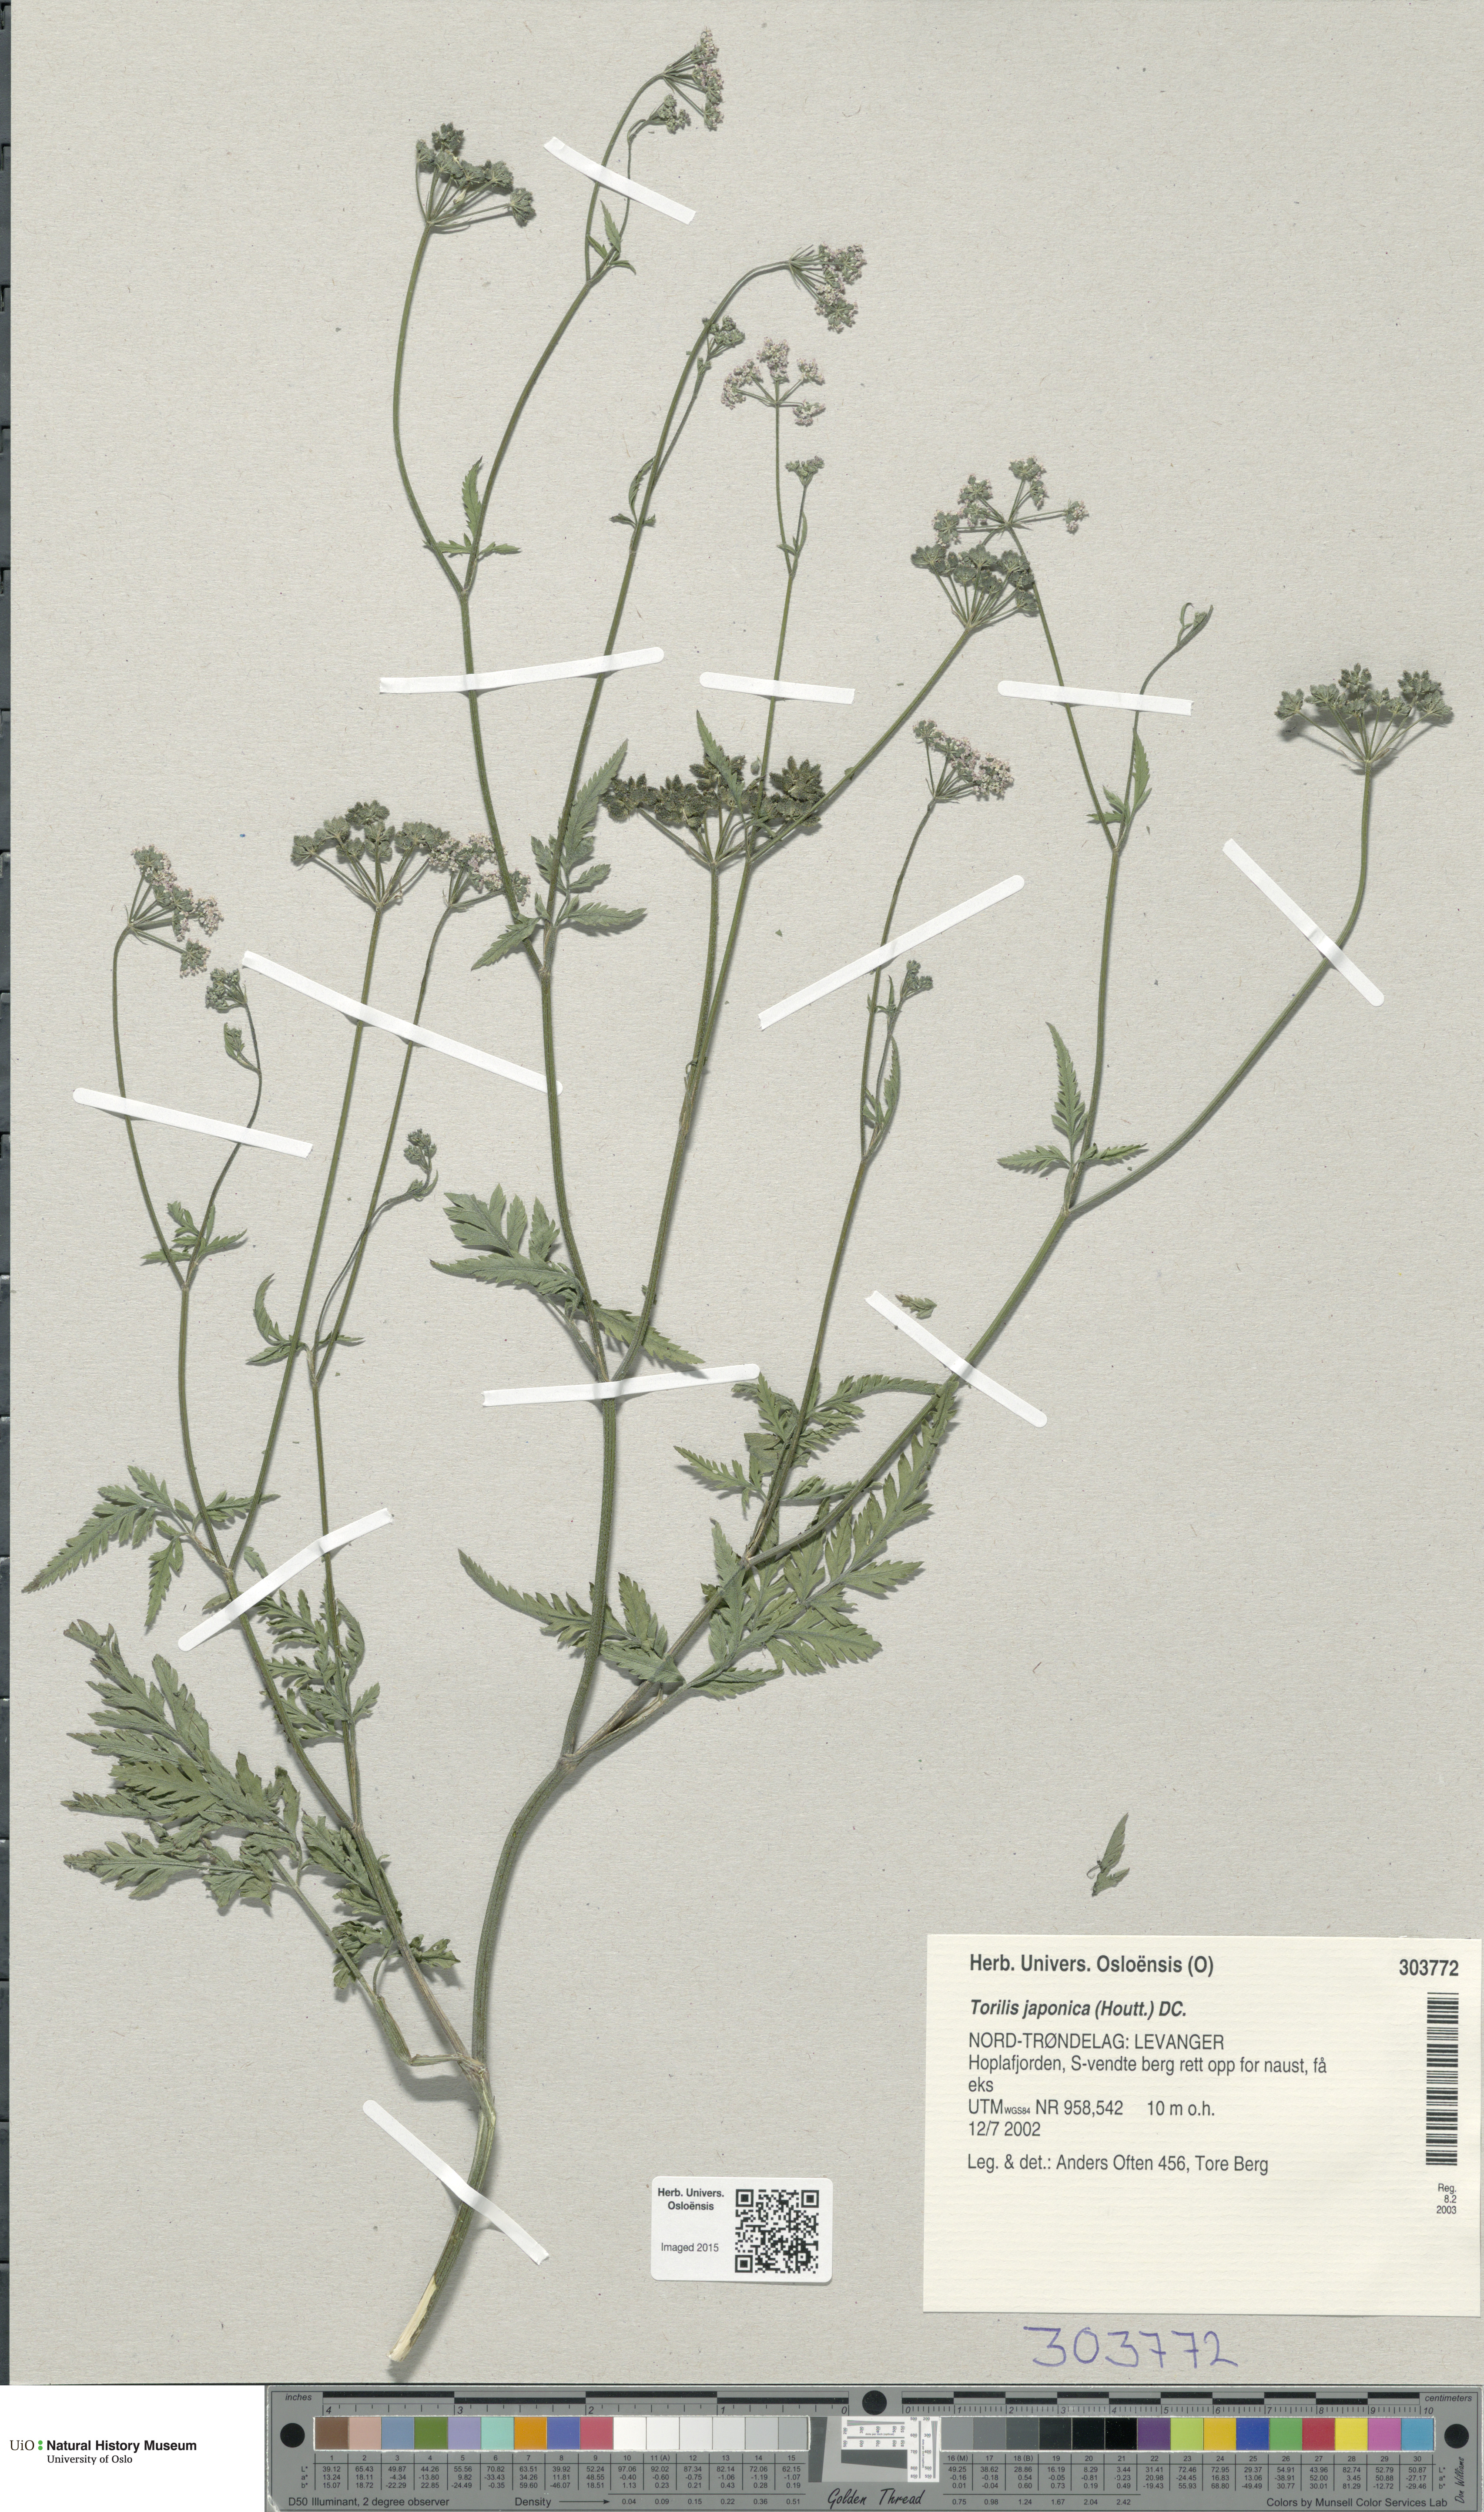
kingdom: Plantae
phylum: Tracheophyta
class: Magnoliopsida
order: Apiales
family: Apiaceae
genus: Torilis
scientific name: Torilis japonica
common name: Upright hedge-parsley
